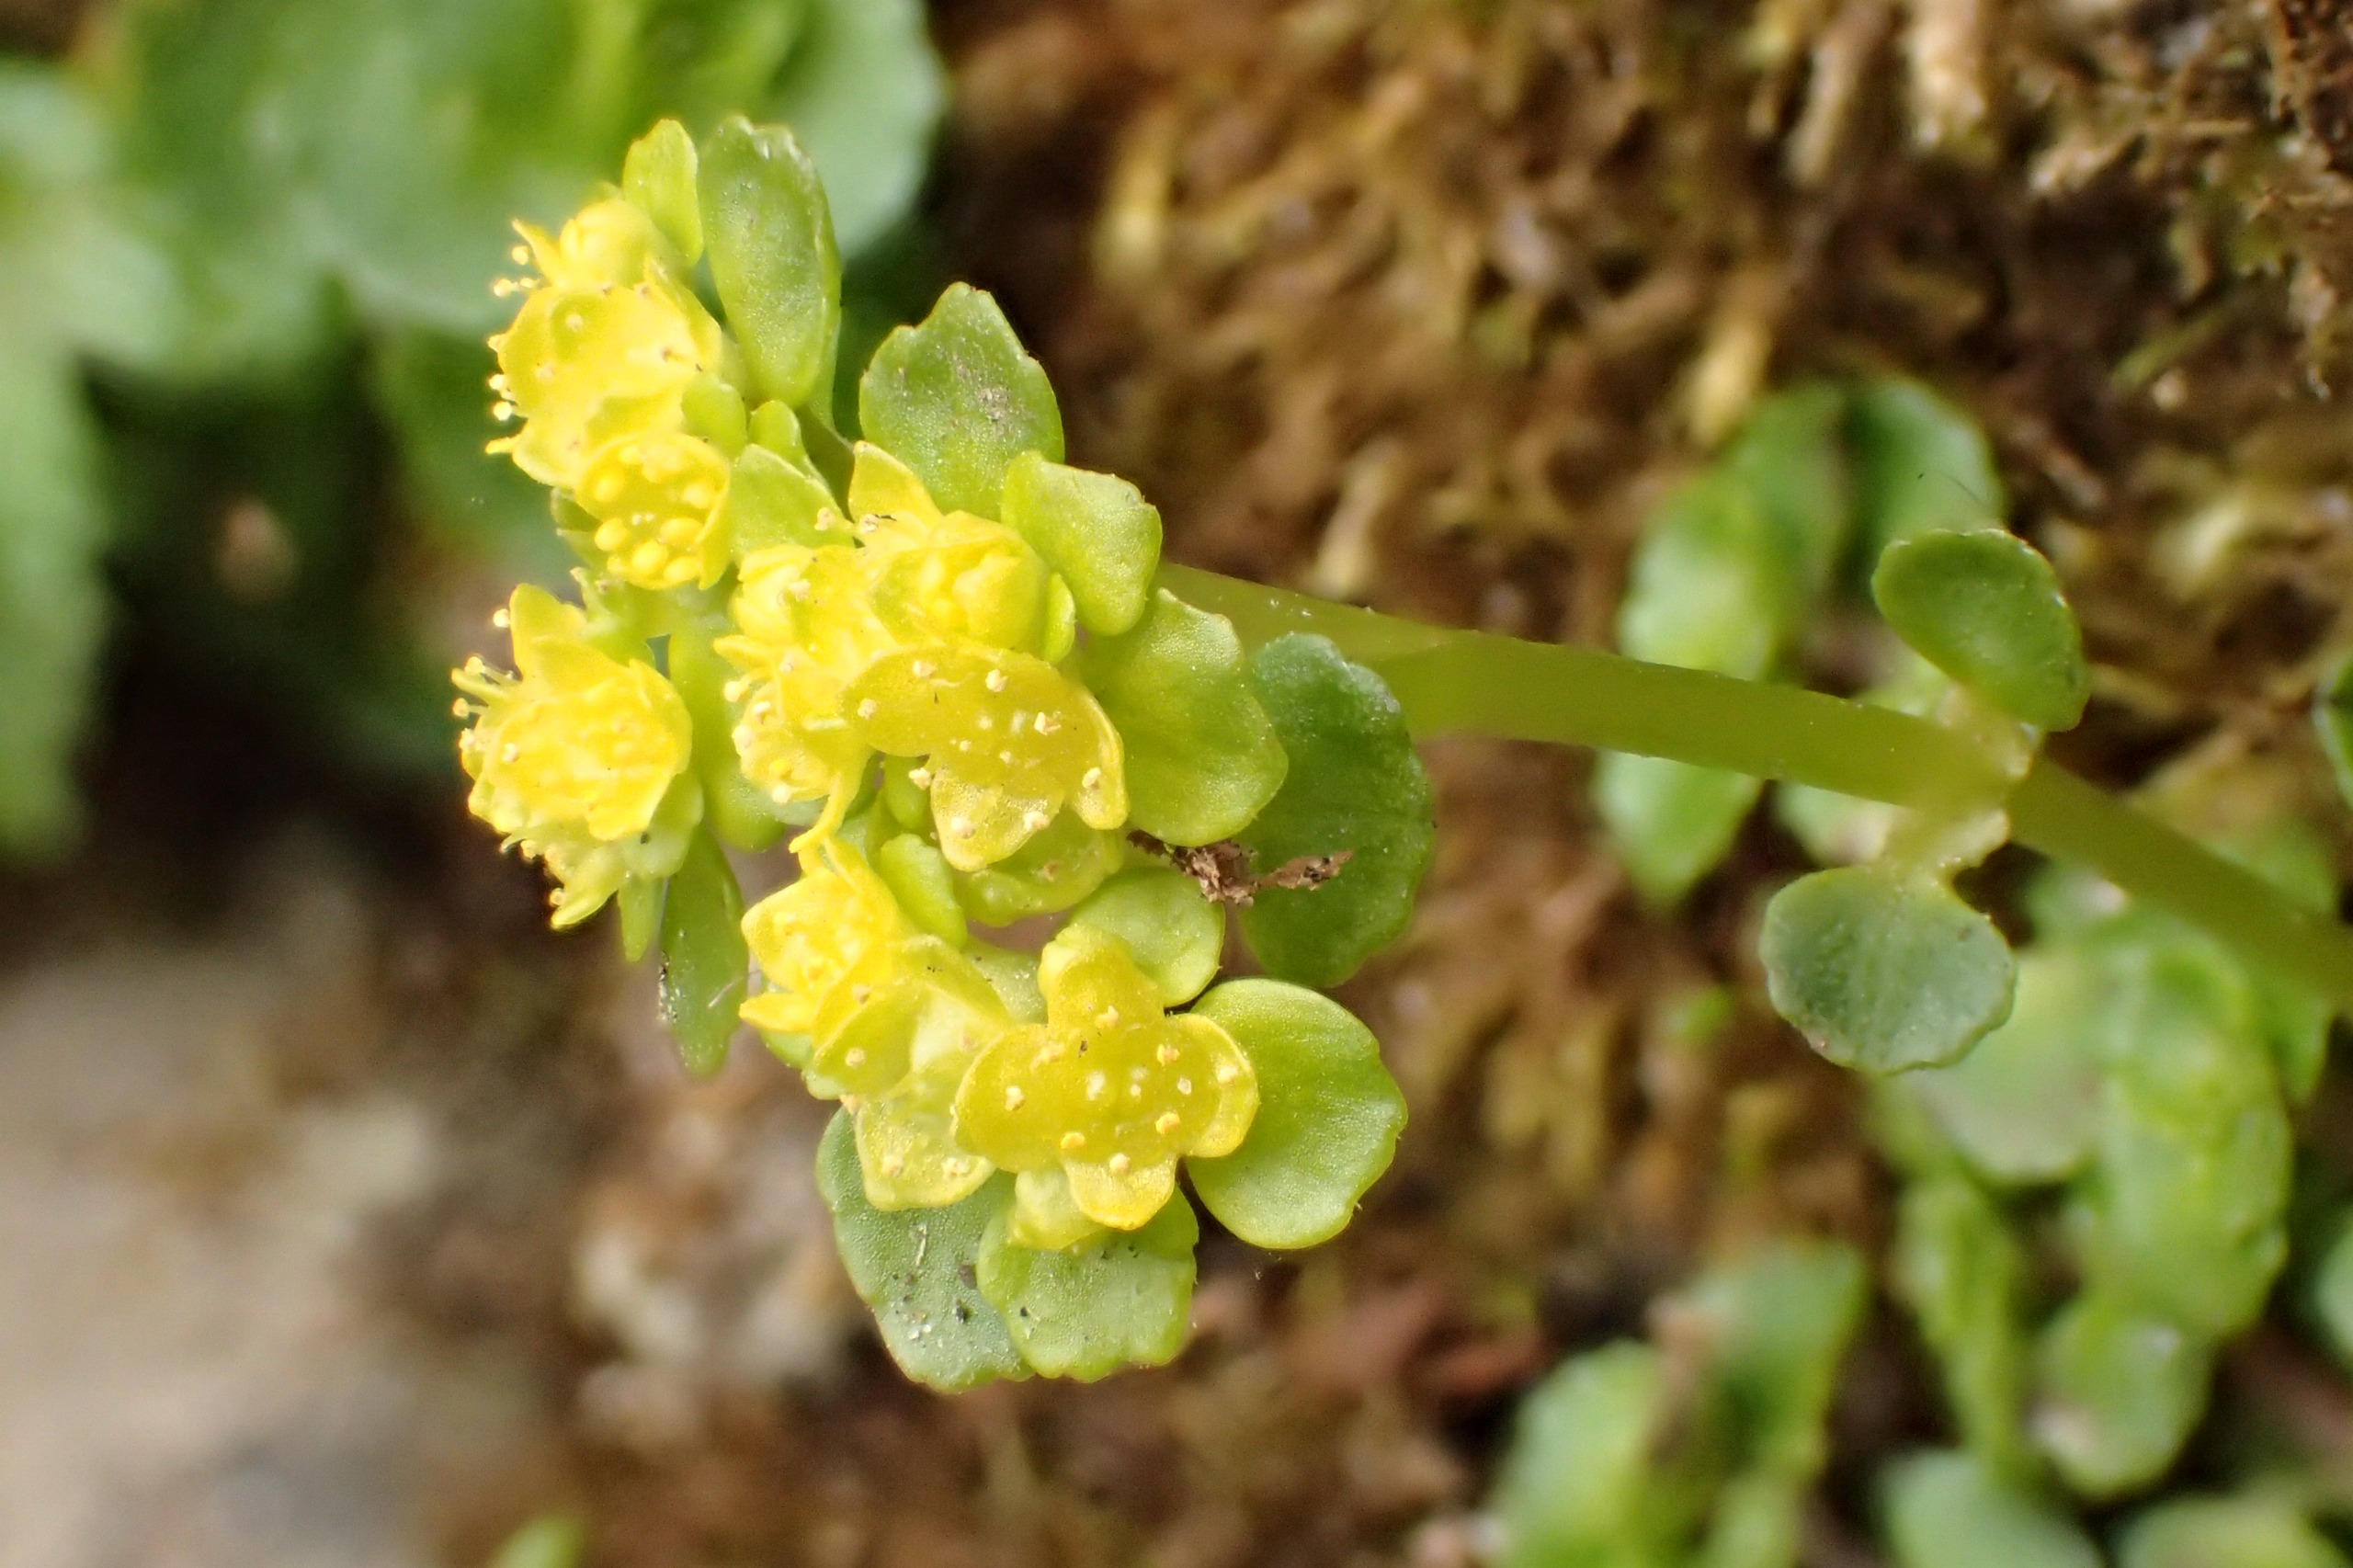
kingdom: Plantae
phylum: Tracheophyta
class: Magnoliopsida
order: Saxifragales
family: Saxifragaceae
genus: Chrysosplenium
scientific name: Chrysosplenium oppositifolium
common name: Småbladet milturt
